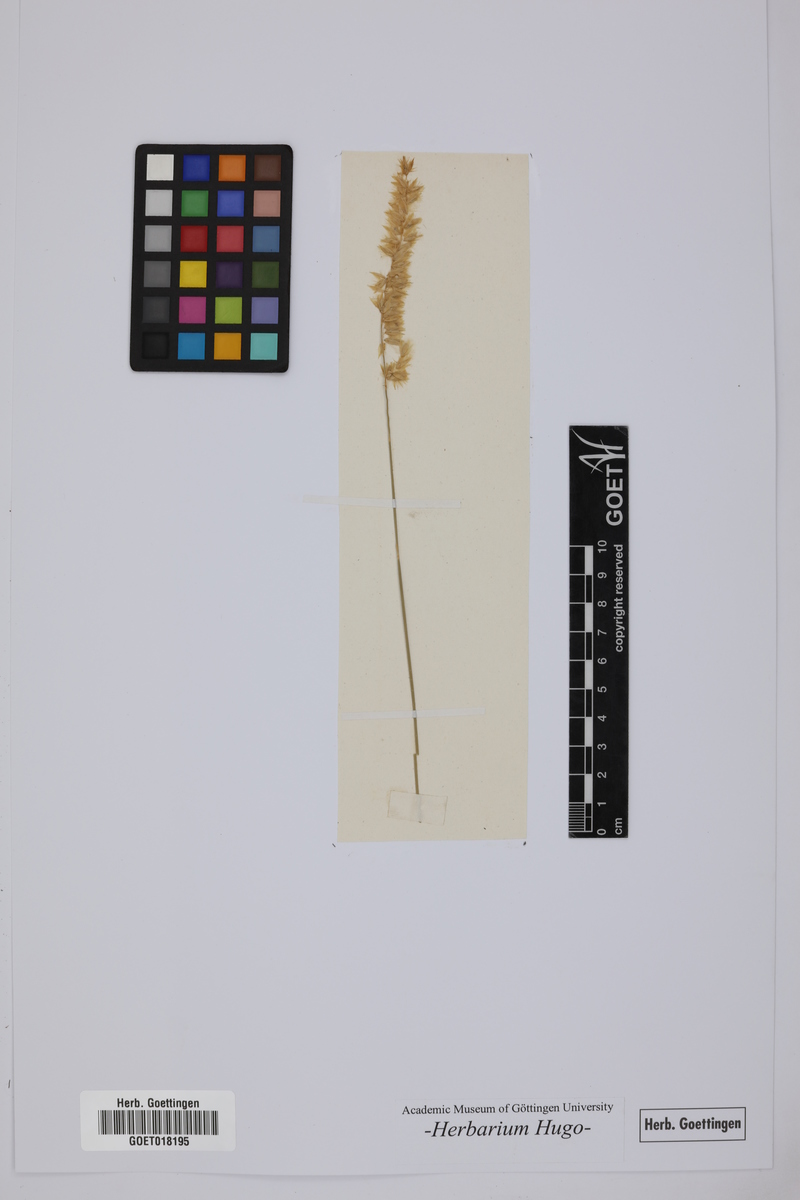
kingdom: Plantae
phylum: Tracheophyta
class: Liliopsida
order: Poales
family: Poaceae
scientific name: Poaceae
